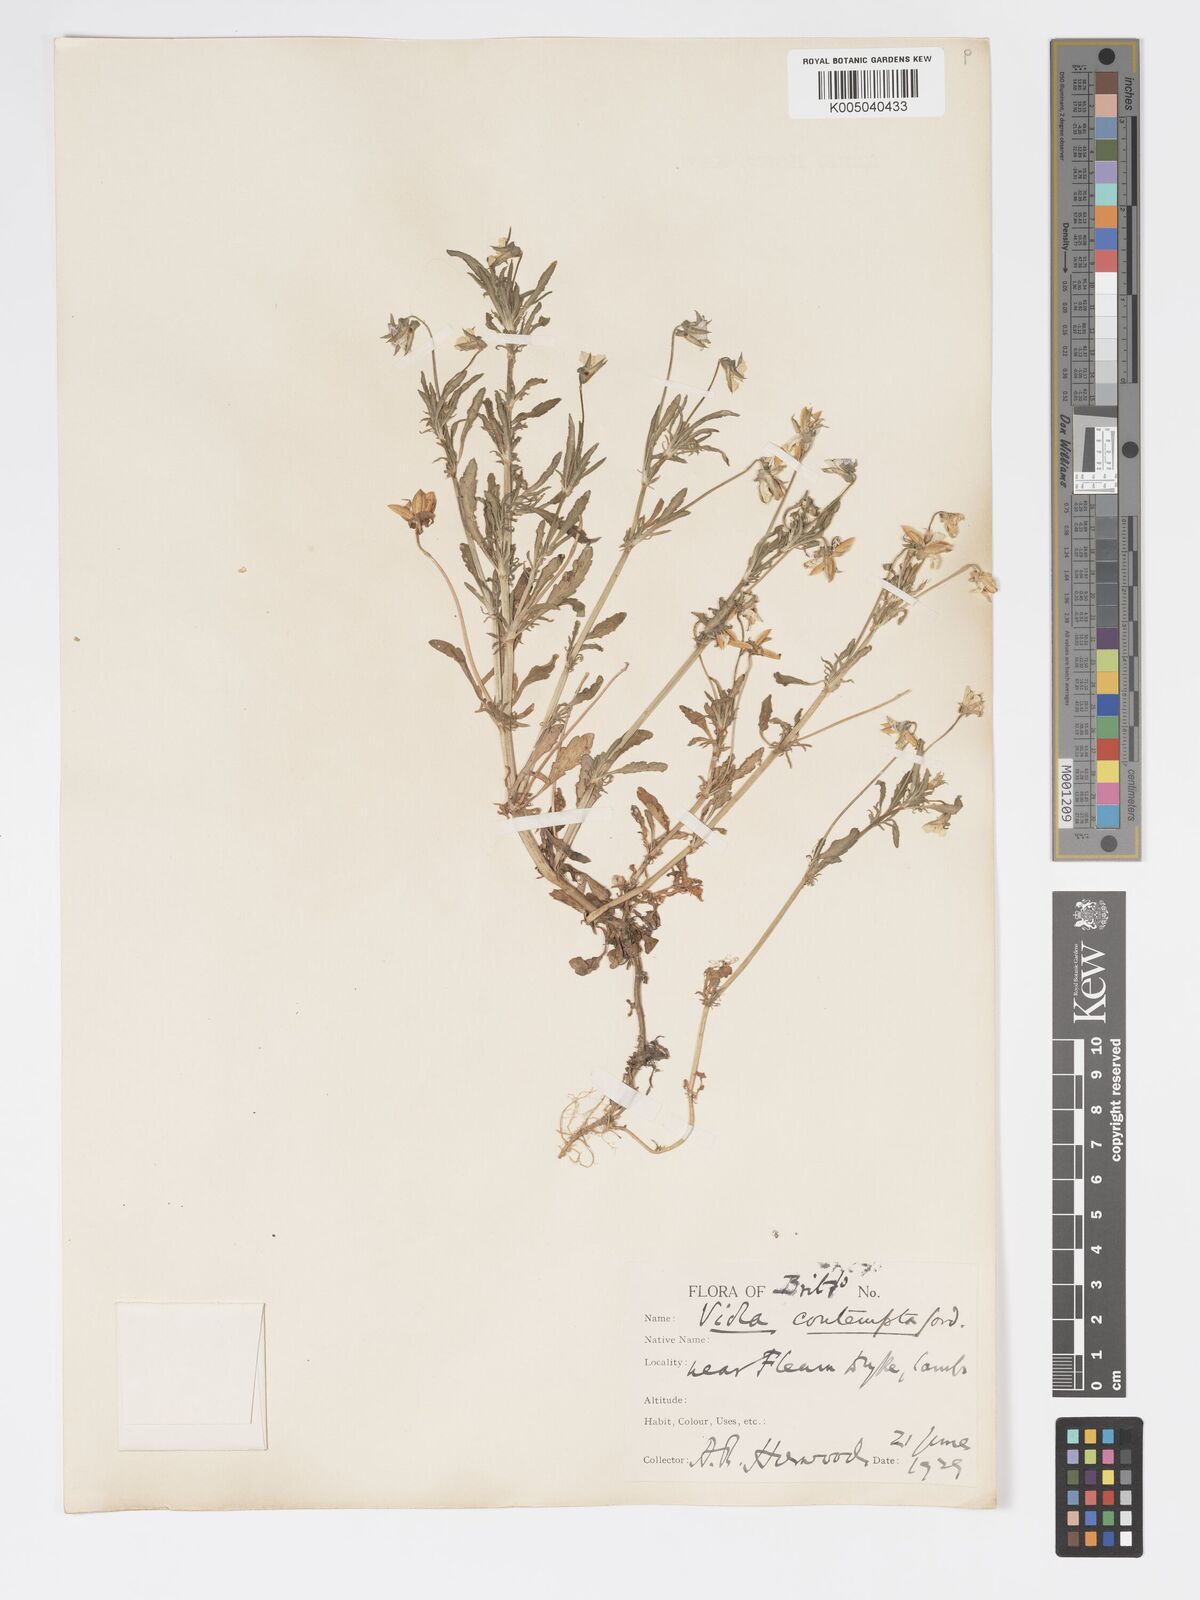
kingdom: Plantae
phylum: Tracheophyta
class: Magnoliopsida
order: Malpighiales
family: Violaceae
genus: Viola
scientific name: Viola arvensis
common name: Field pansy
